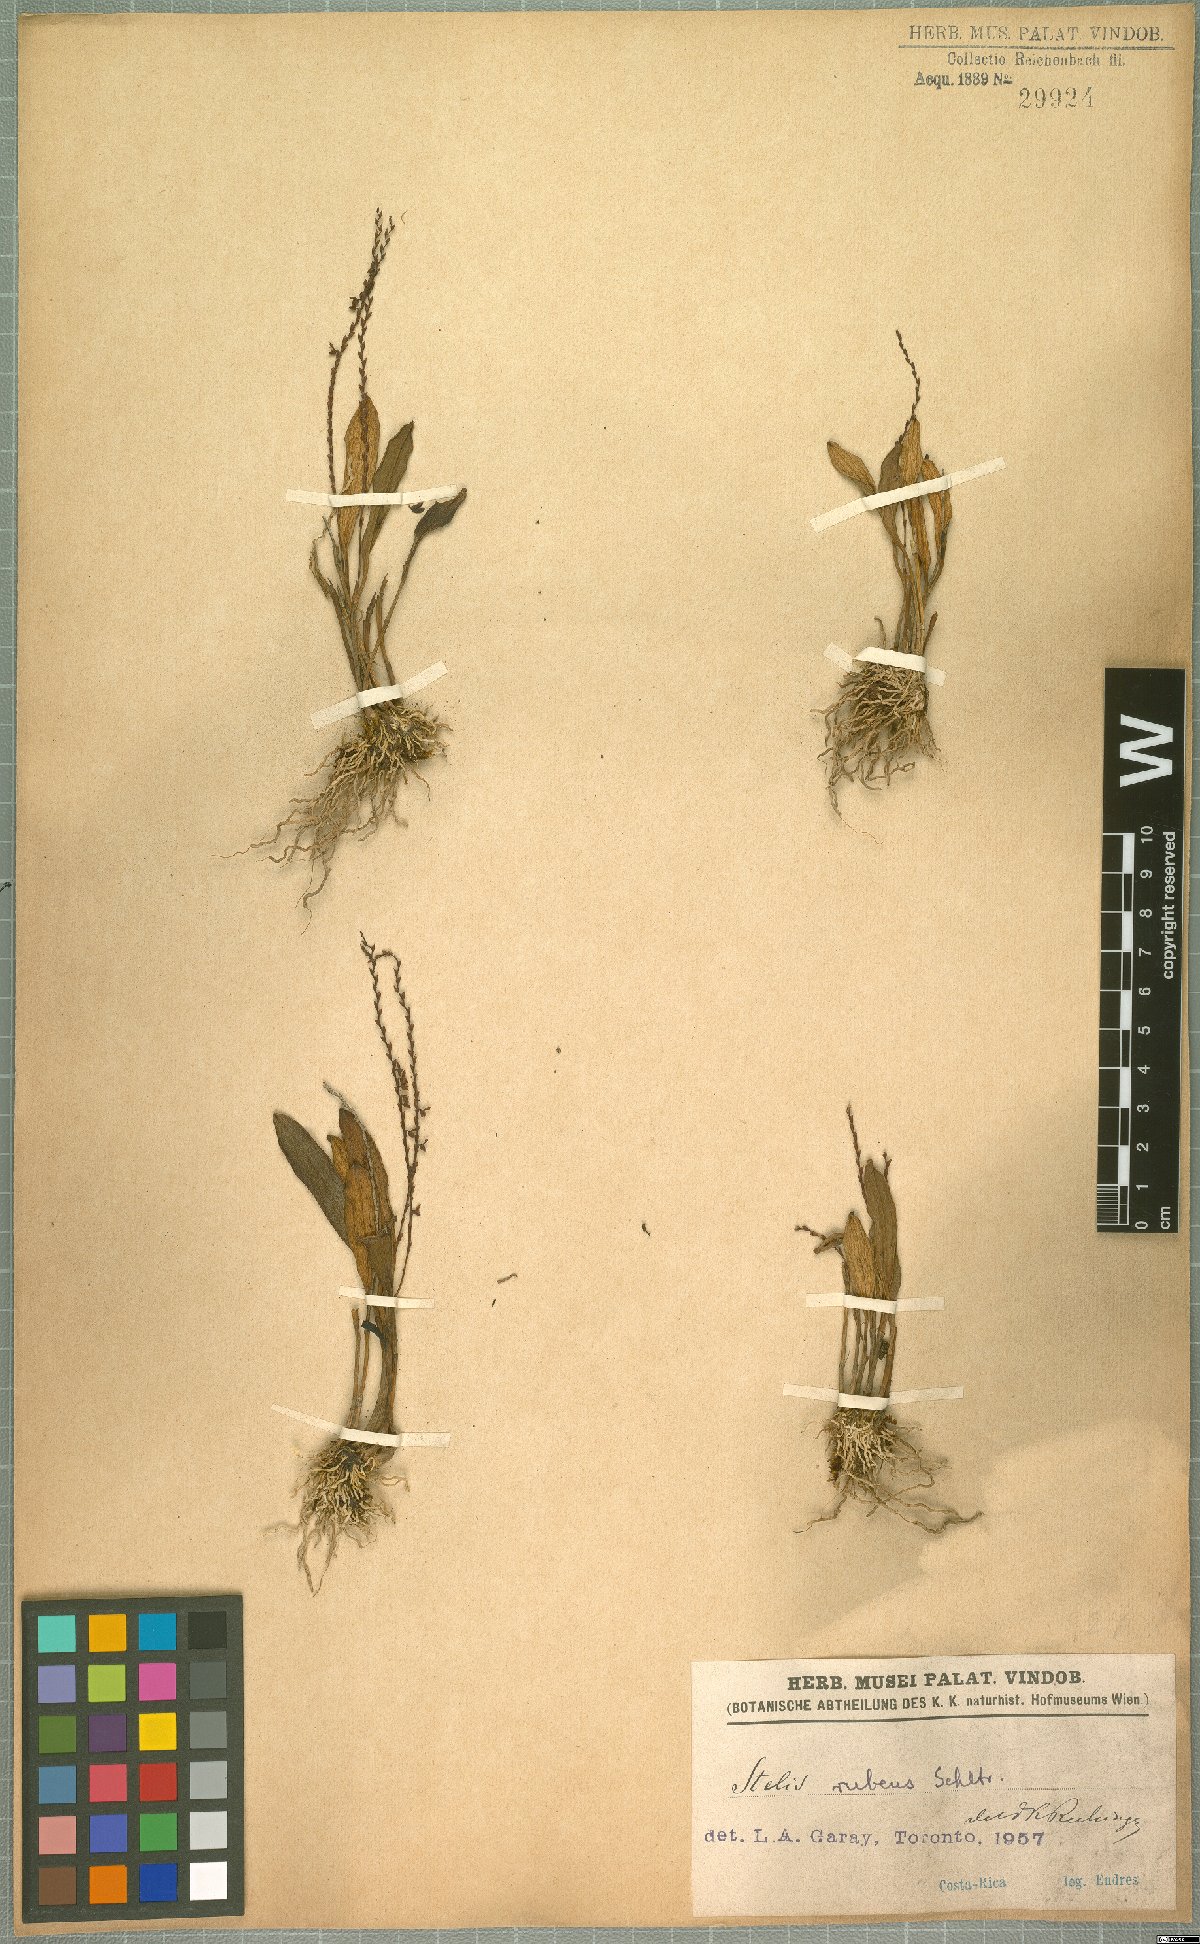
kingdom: Plantae
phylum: Tracheophyta
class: Liliopsida
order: Asparagales
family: Orchidaceae
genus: Stelis
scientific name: Stelis rubens
